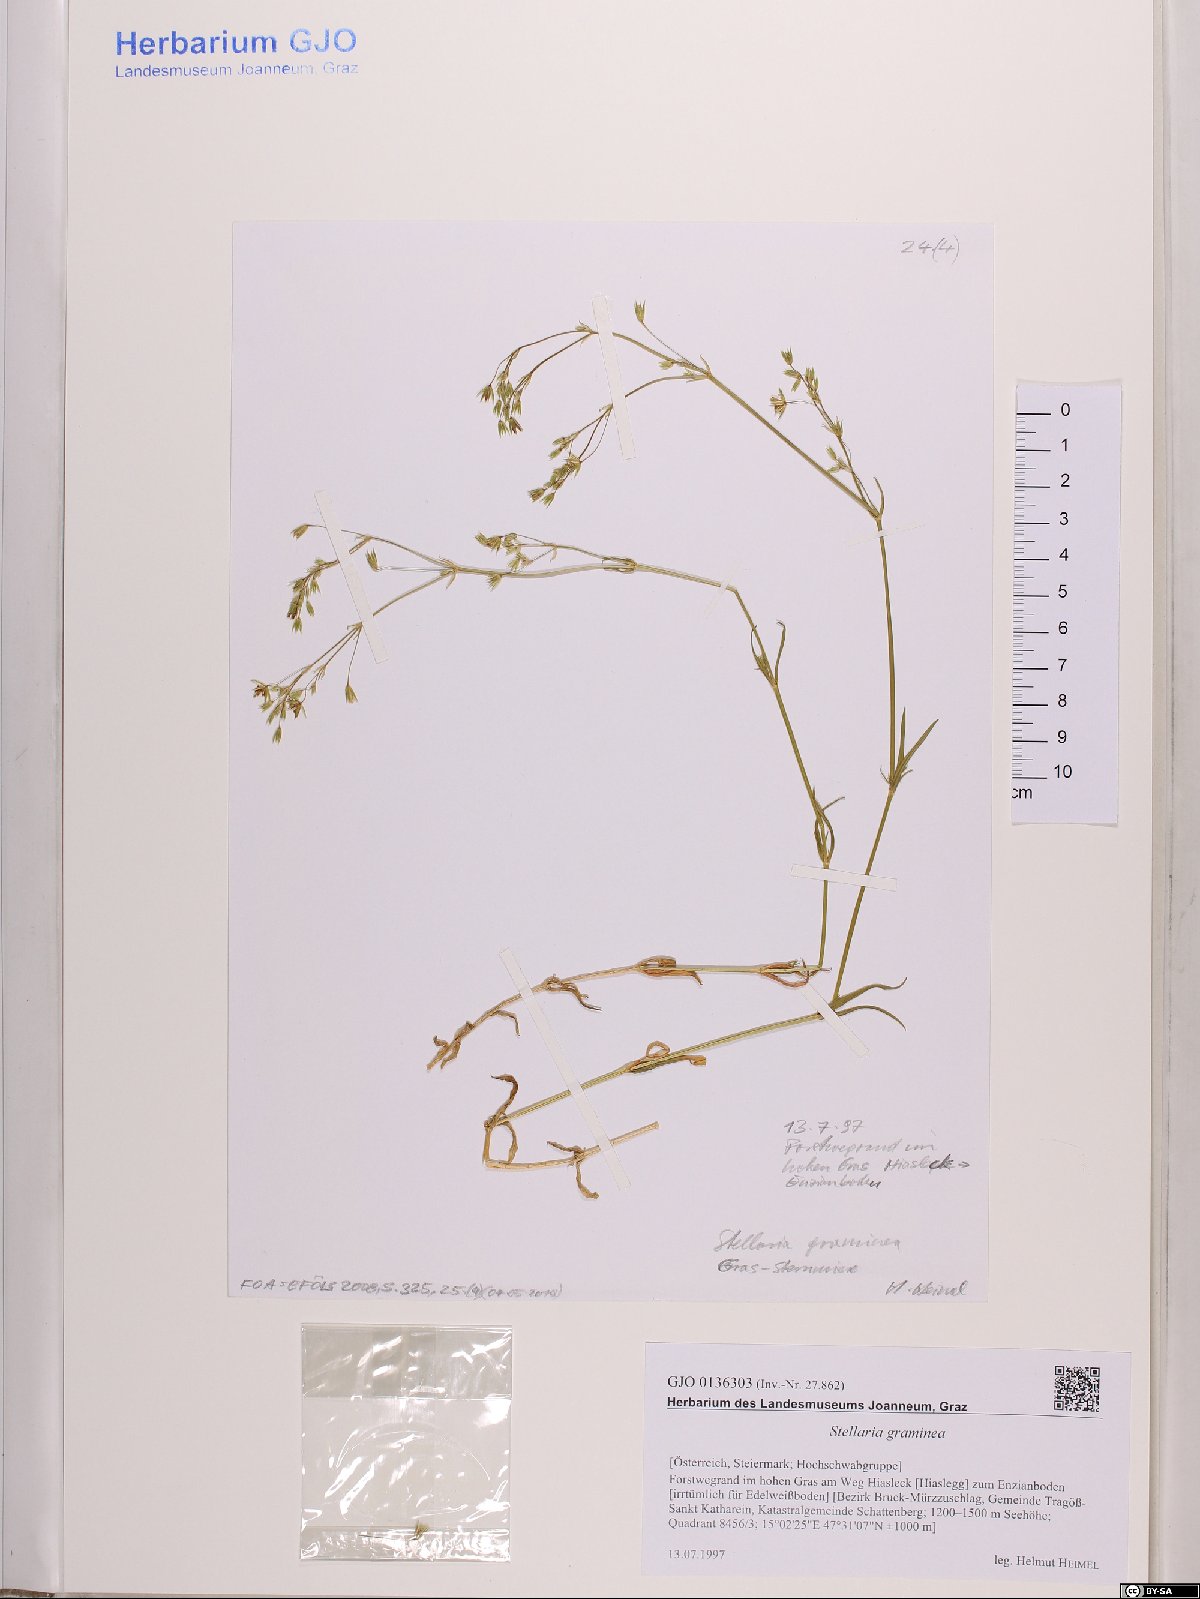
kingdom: Plantae
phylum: Tracheophyta
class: Magnoliopsida
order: Caryophyllales
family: Caryophyllaceae
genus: Stellaria
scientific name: Stellaria graminea
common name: Grass-like starwort
